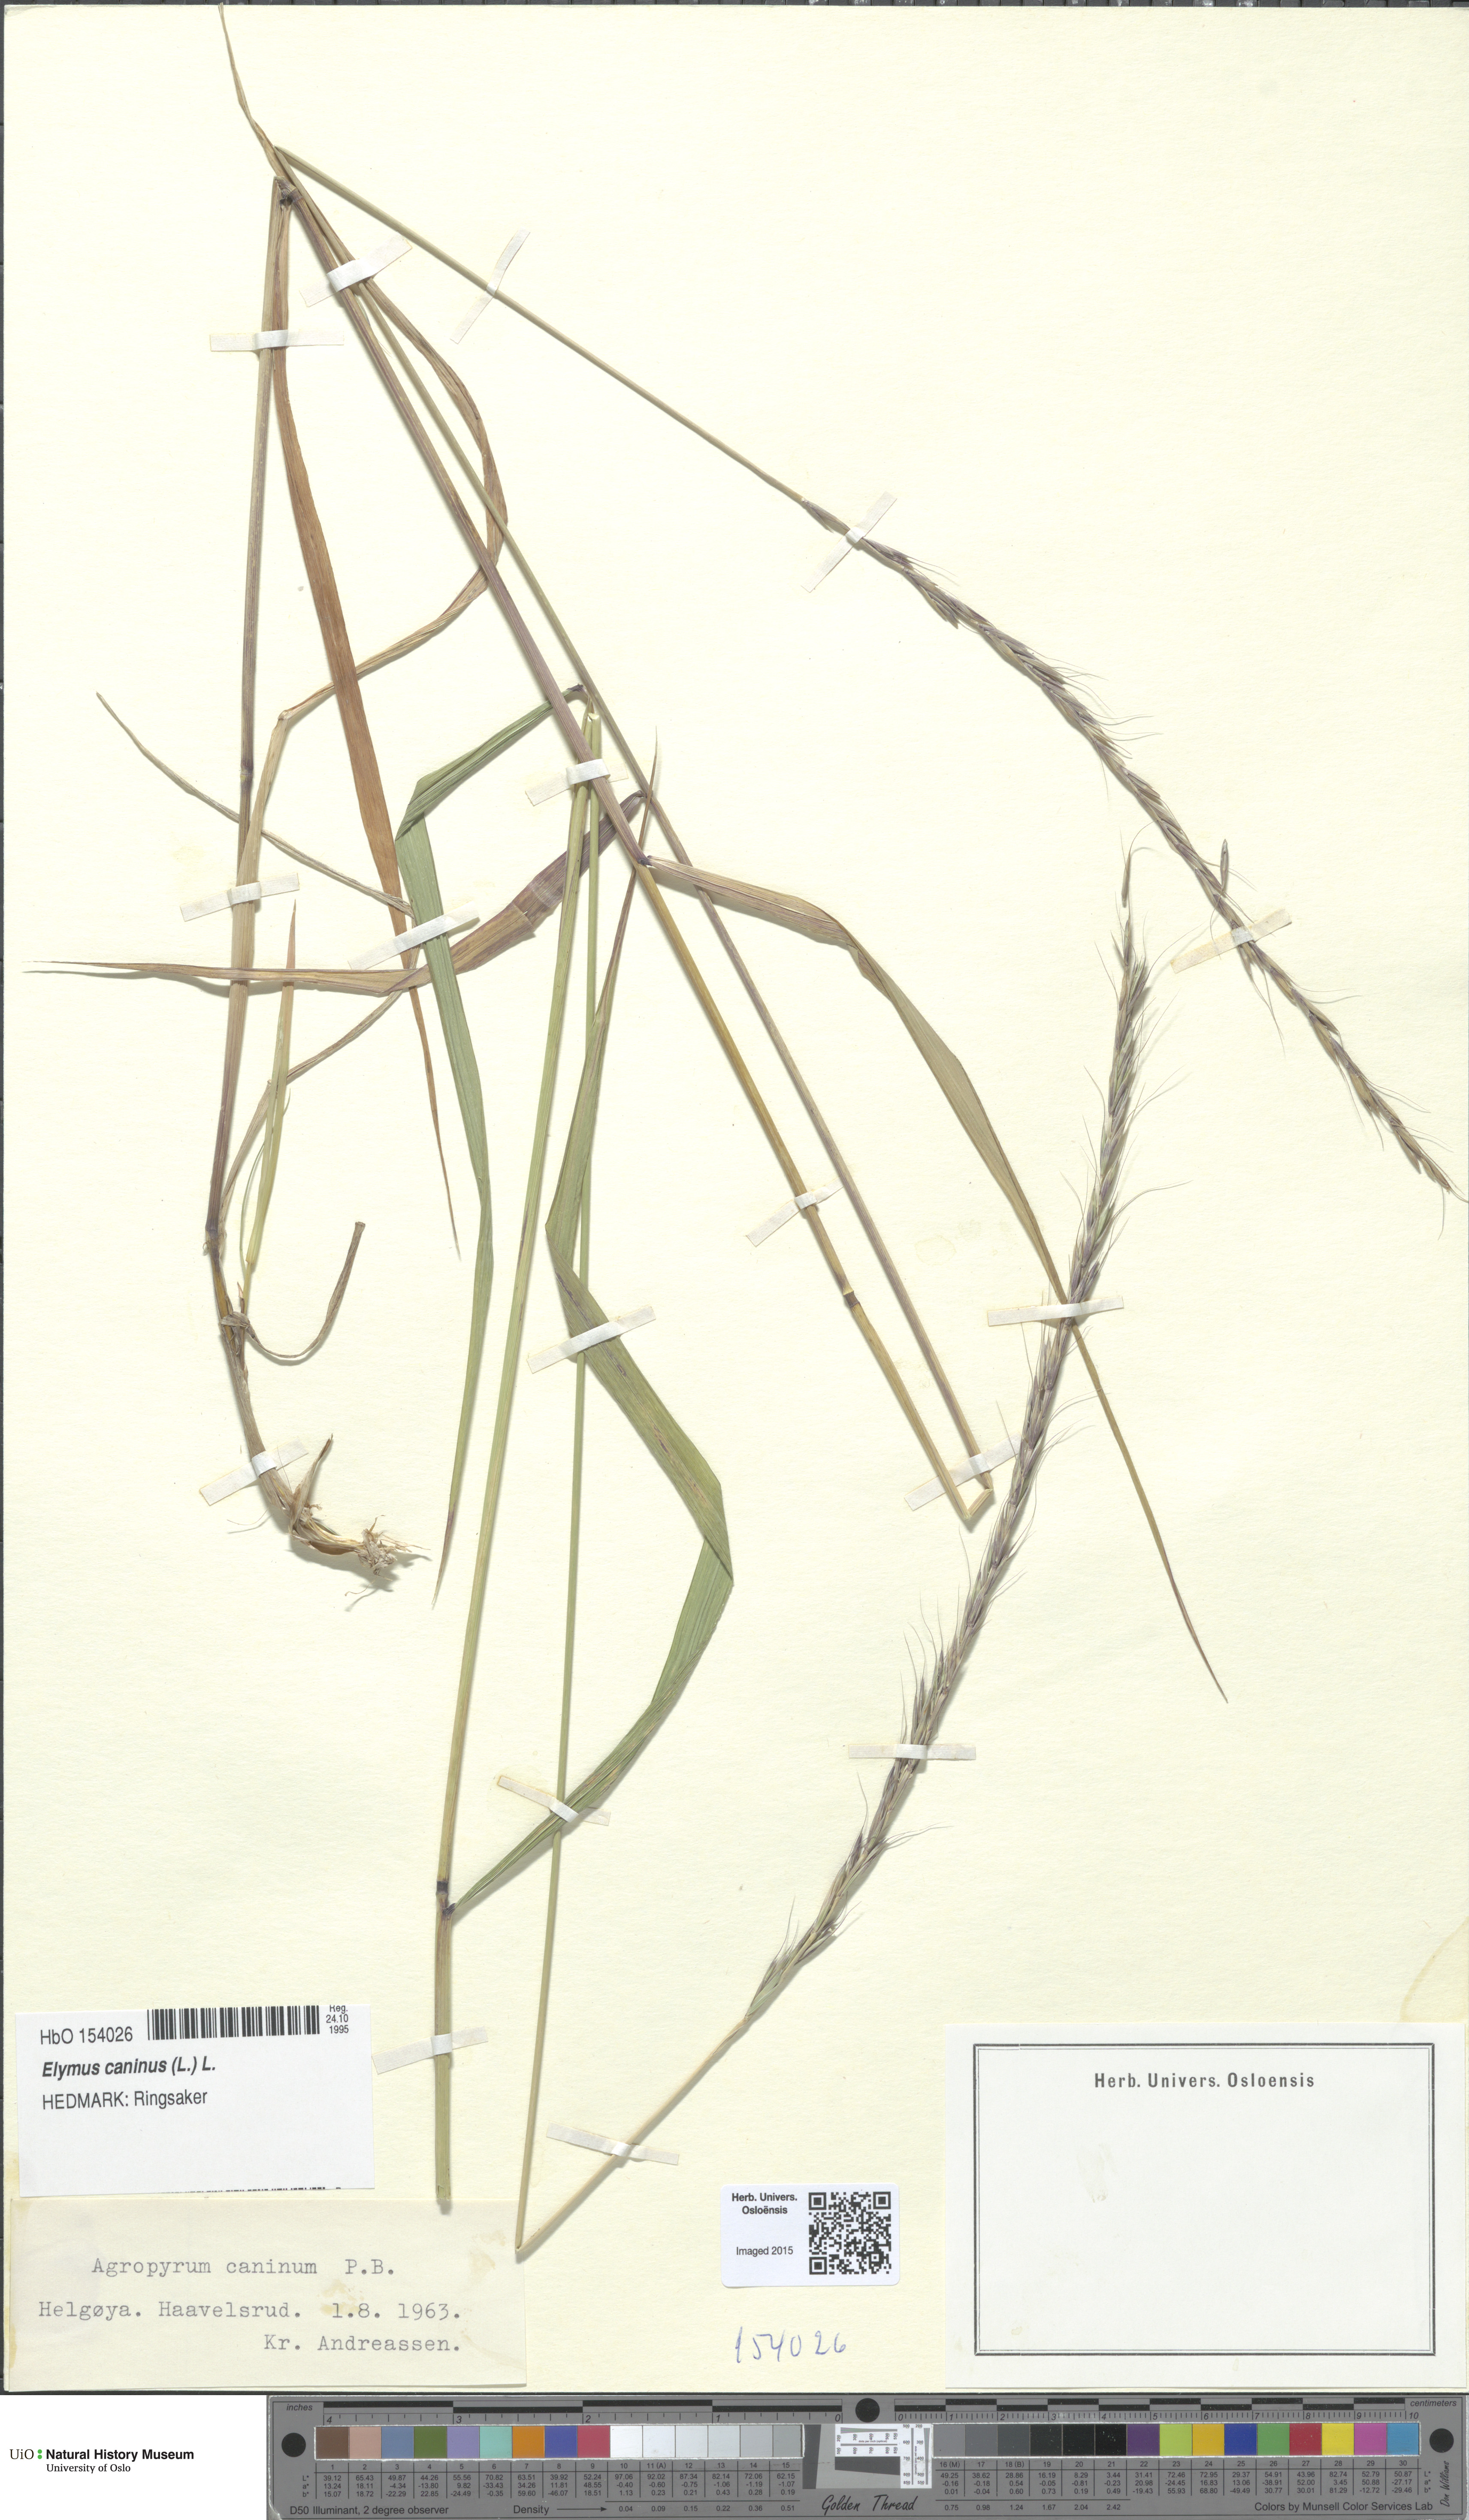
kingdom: Plantae
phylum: Tracheophyta
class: Liliopsida
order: Poales
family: Poaceae
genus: Elymus
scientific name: Elymus caninus
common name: Bearded couch
